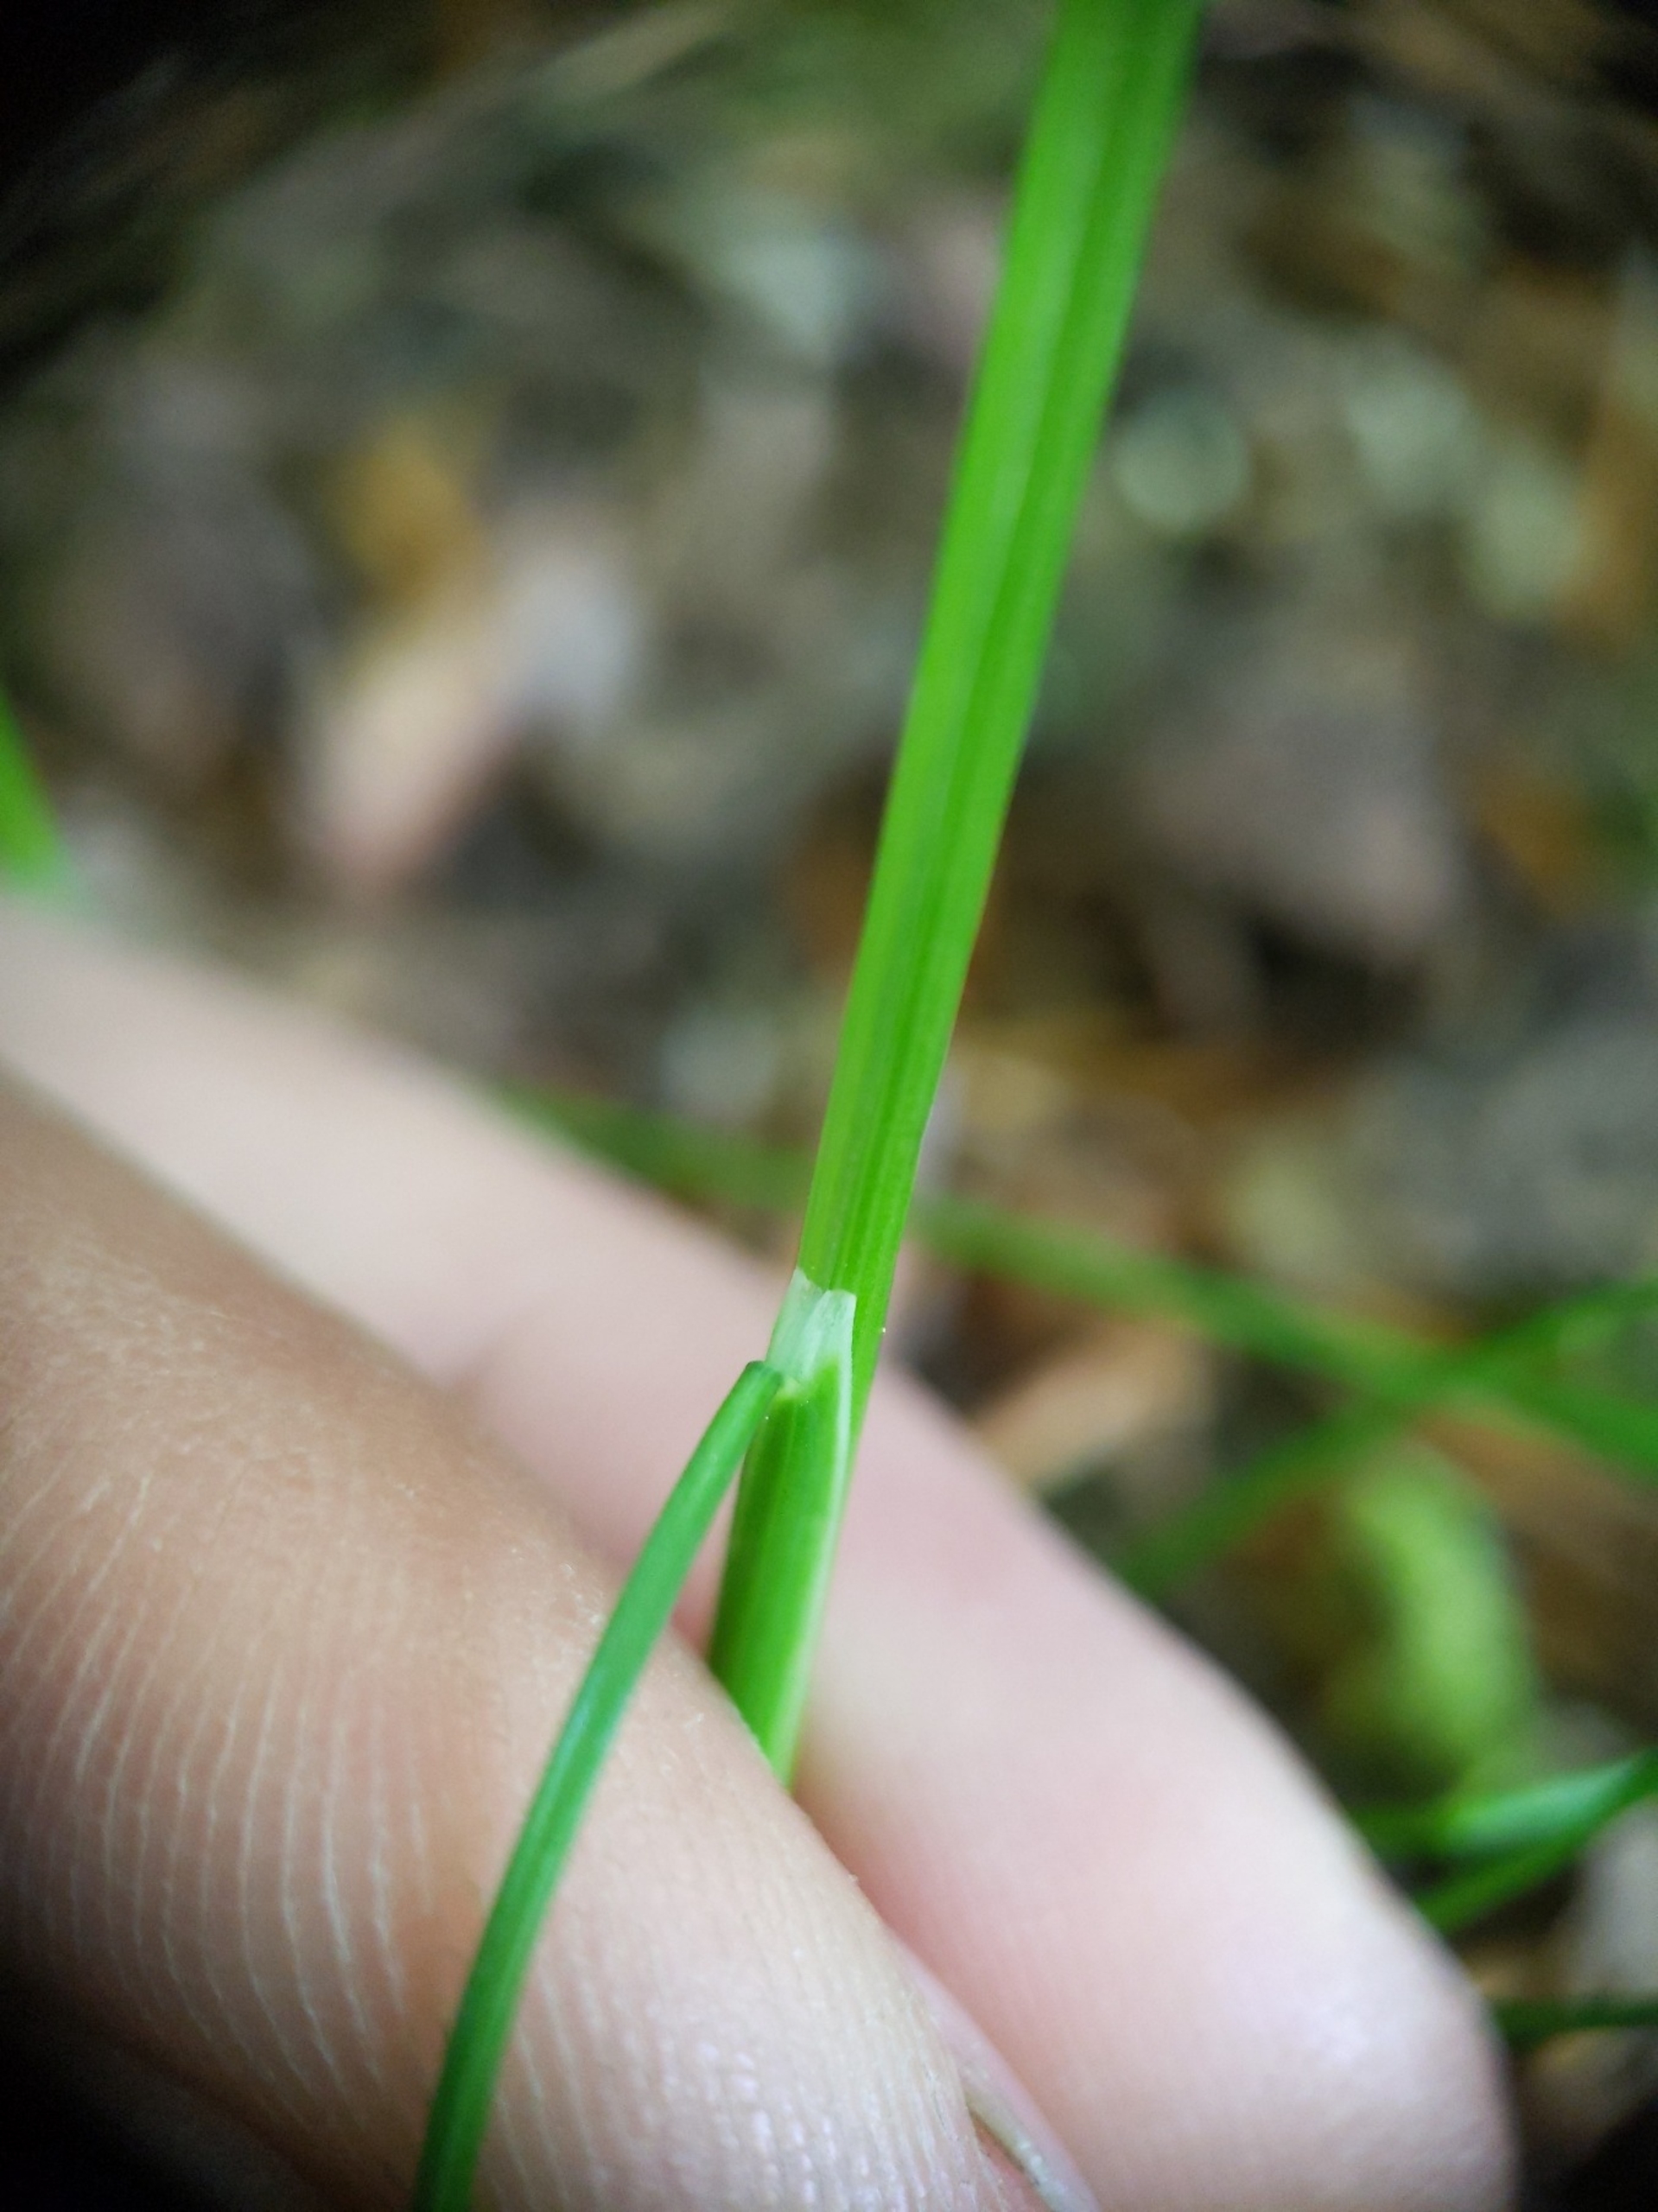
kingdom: Plantae
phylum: Tracheophyta
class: Liliopsida
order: Poales
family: Poaceae
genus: Avenella
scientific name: Avenella flexuosa
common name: Bølget bunke
